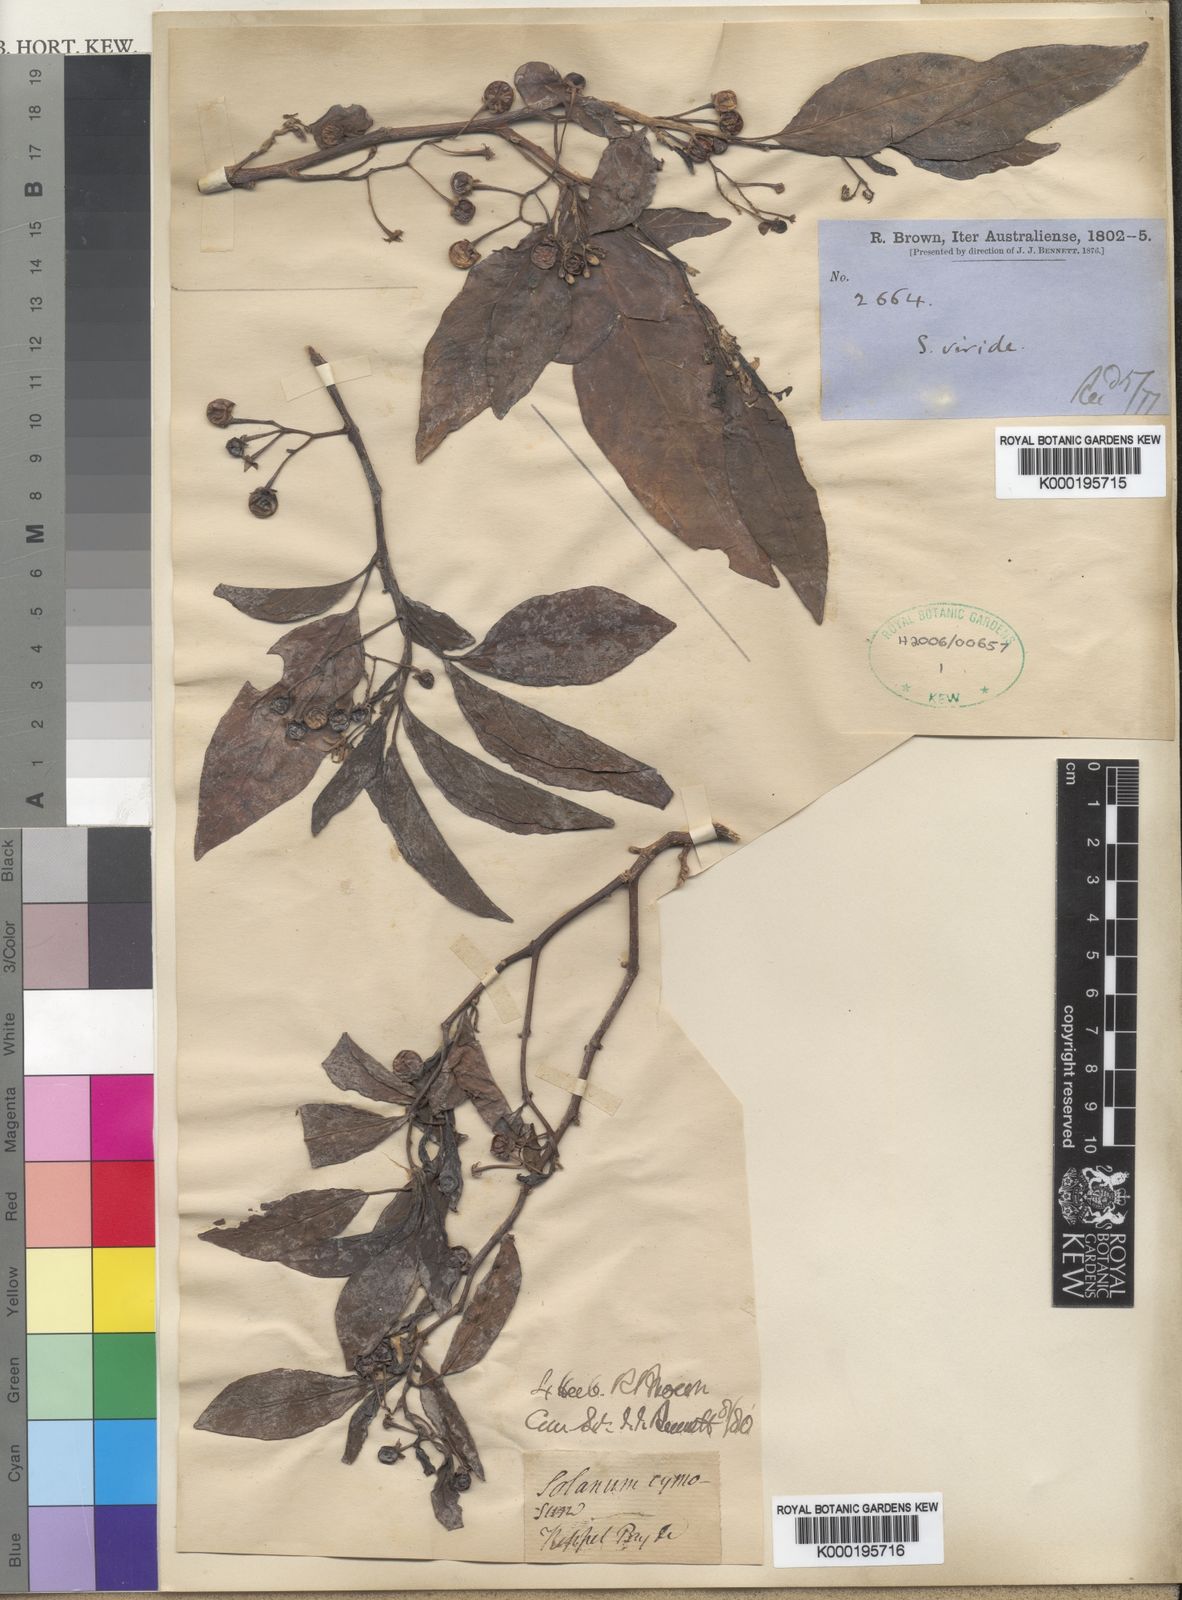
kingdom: Plantae
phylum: Tracheophyta
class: Magnoliopsida
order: Solanales
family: Solanaceae
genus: Solanum
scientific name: Solanum viridifolium
